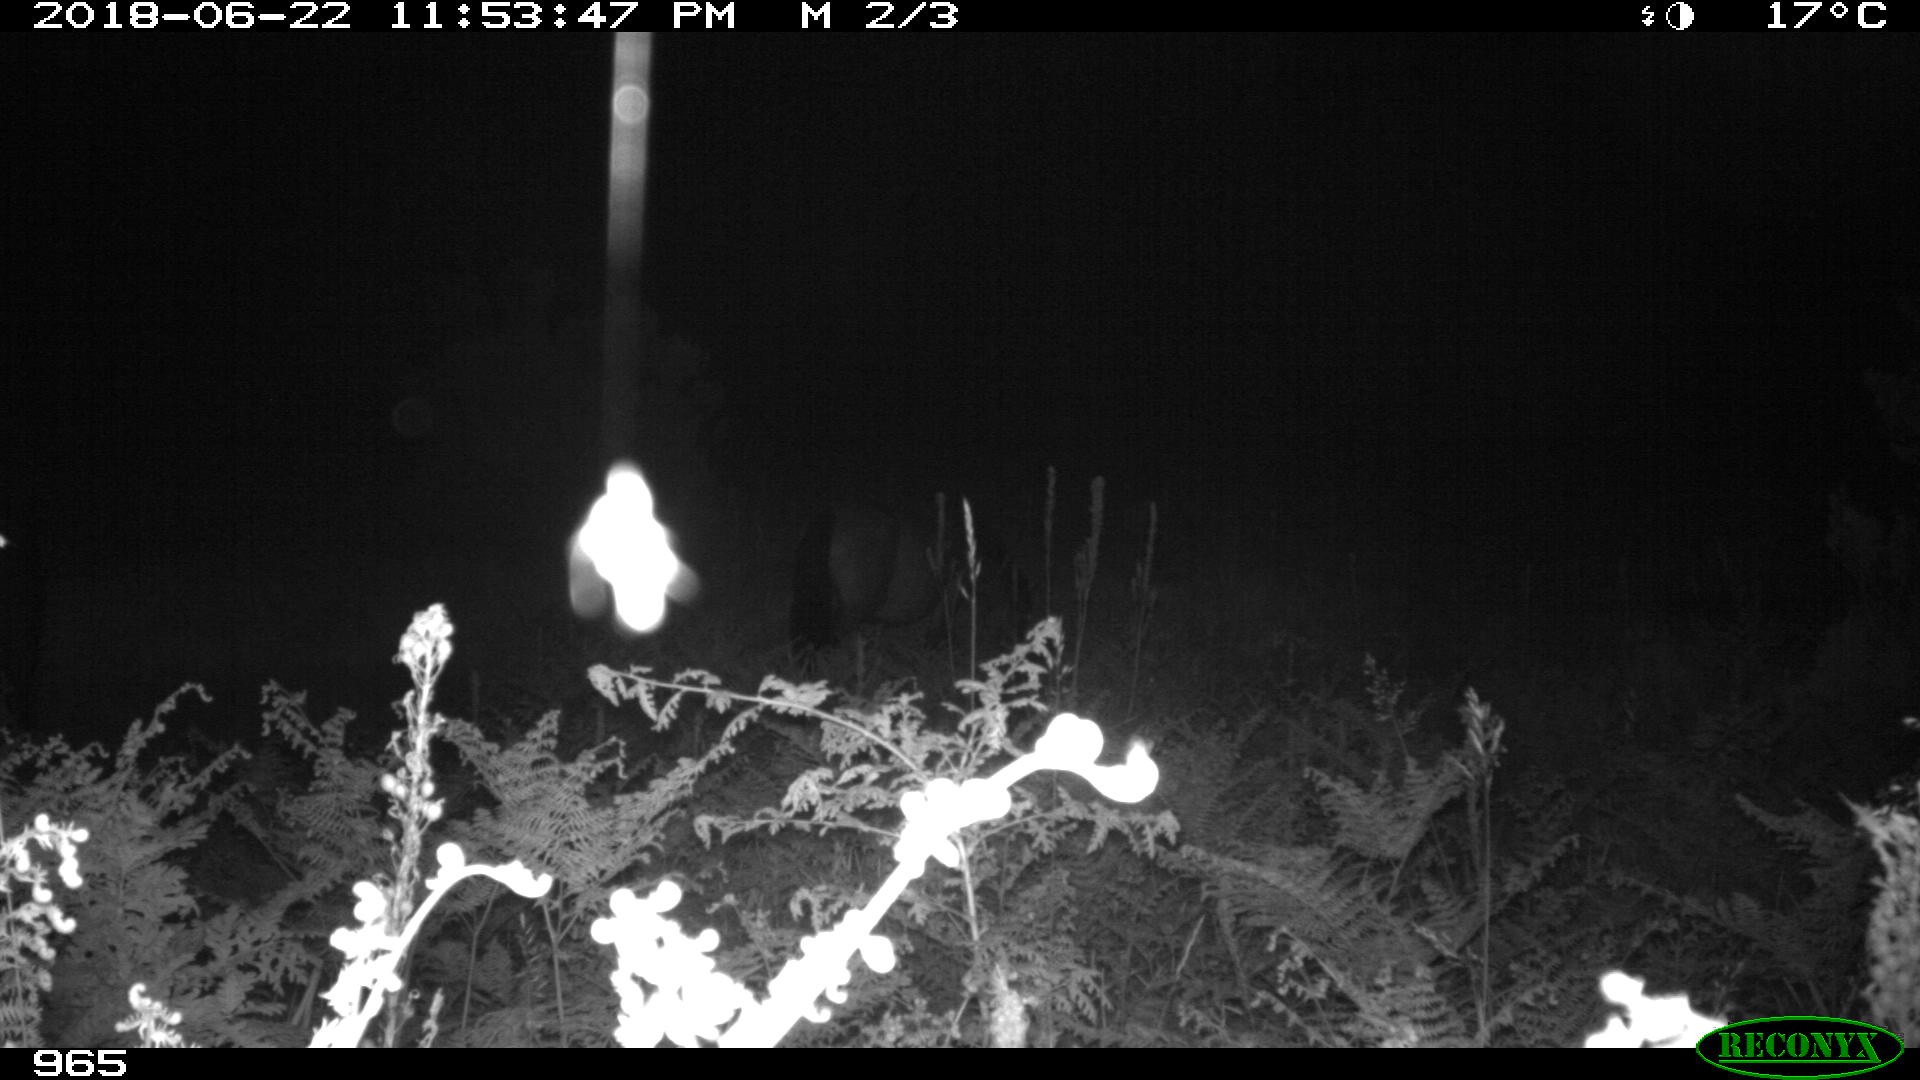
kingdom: Animalia
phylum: Chordata
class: Mammalia
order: Perissodactyla
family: Equidae
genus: Equus
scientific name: Equus caballus
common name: Horse
